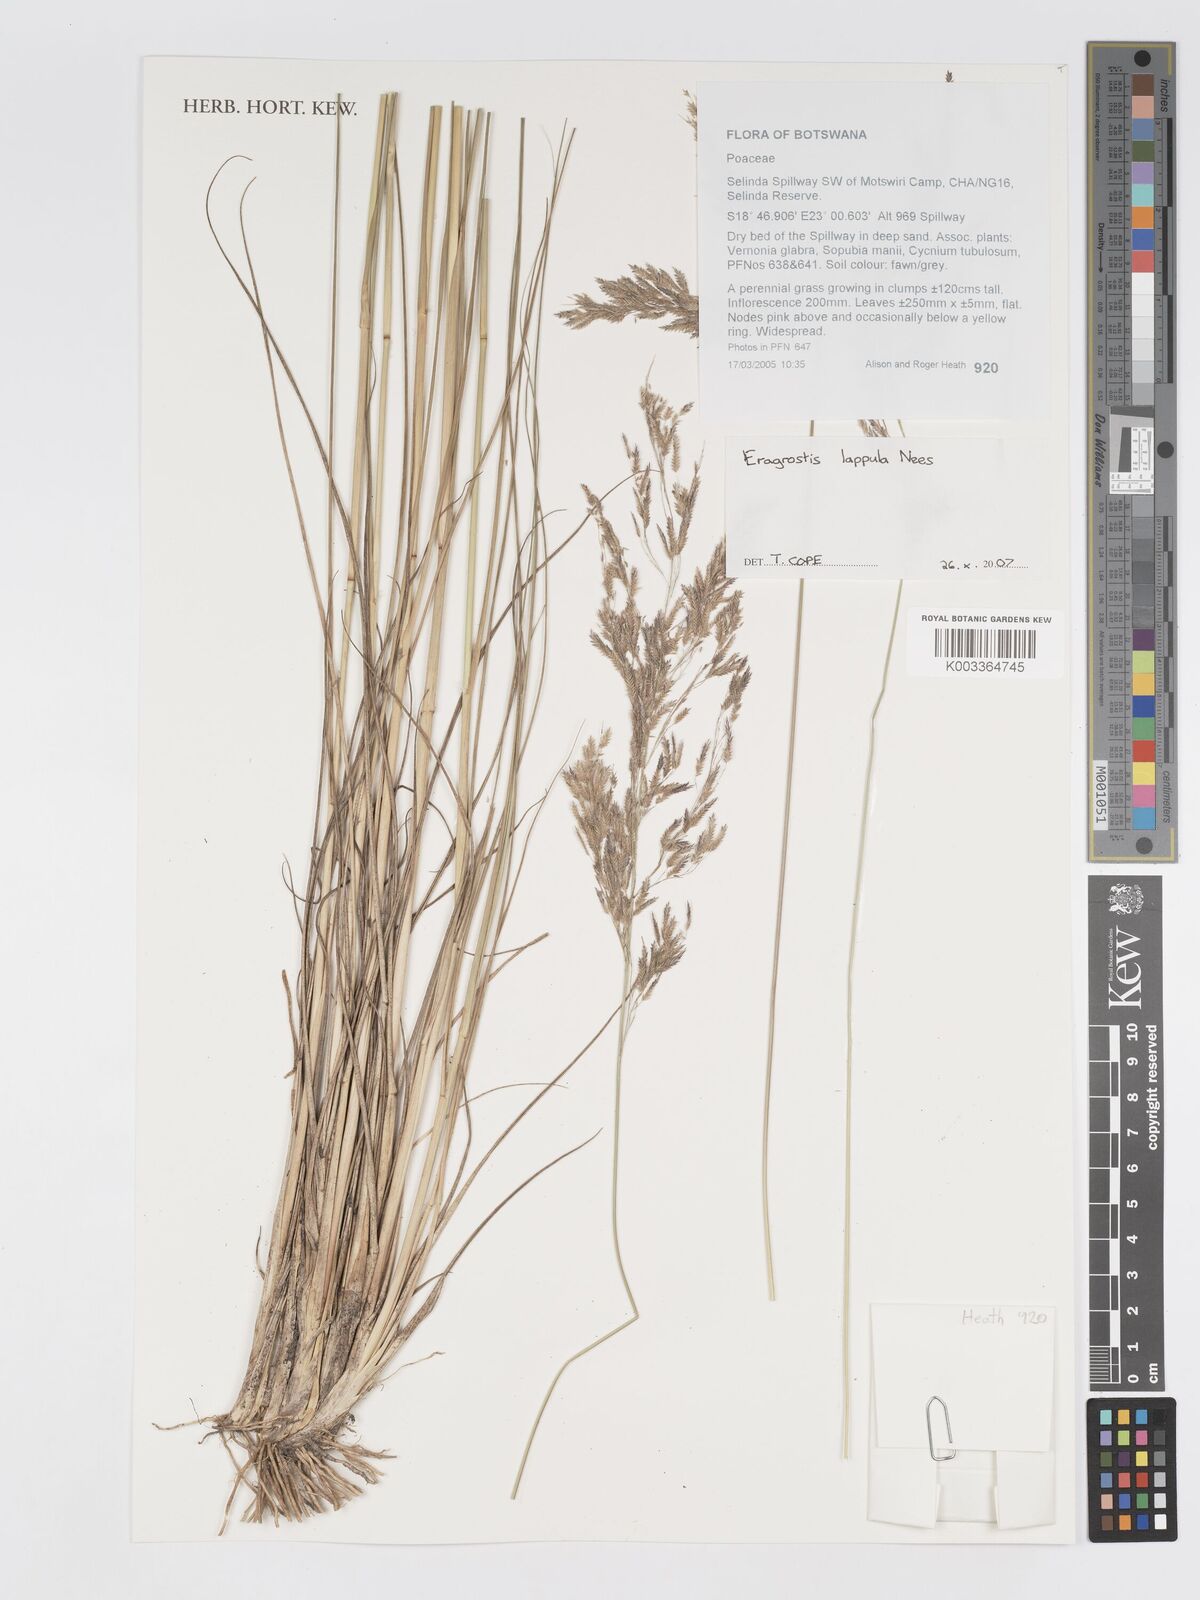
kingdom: Plantae
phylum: Tracheophyta
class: Liliopsida
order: Poales
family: Poaceae
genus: Eragrostis
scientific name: Eragrostis lappula
